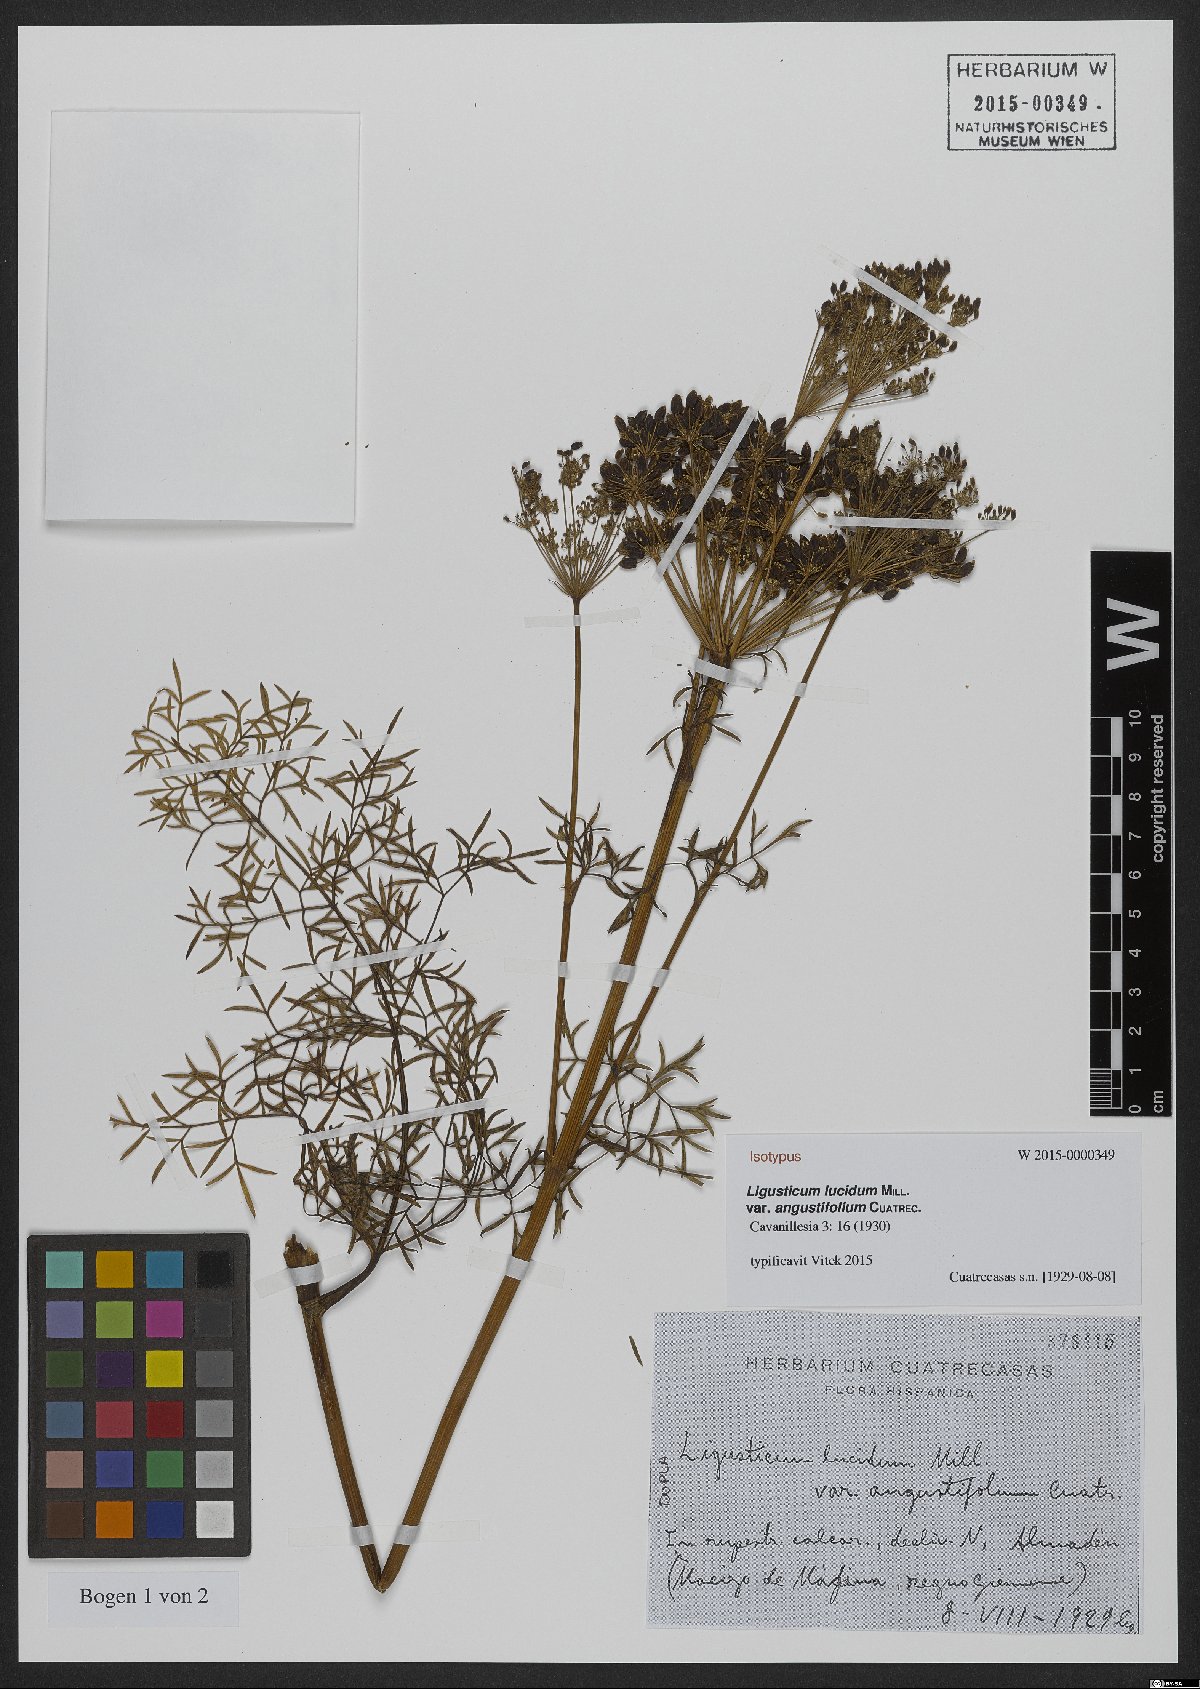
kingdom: Plantae
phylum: Tracheophyta
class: Magnoliopsida
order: Apiales
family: Apiaceae
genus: Coristospermum
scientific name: Coristospermum lucidum
